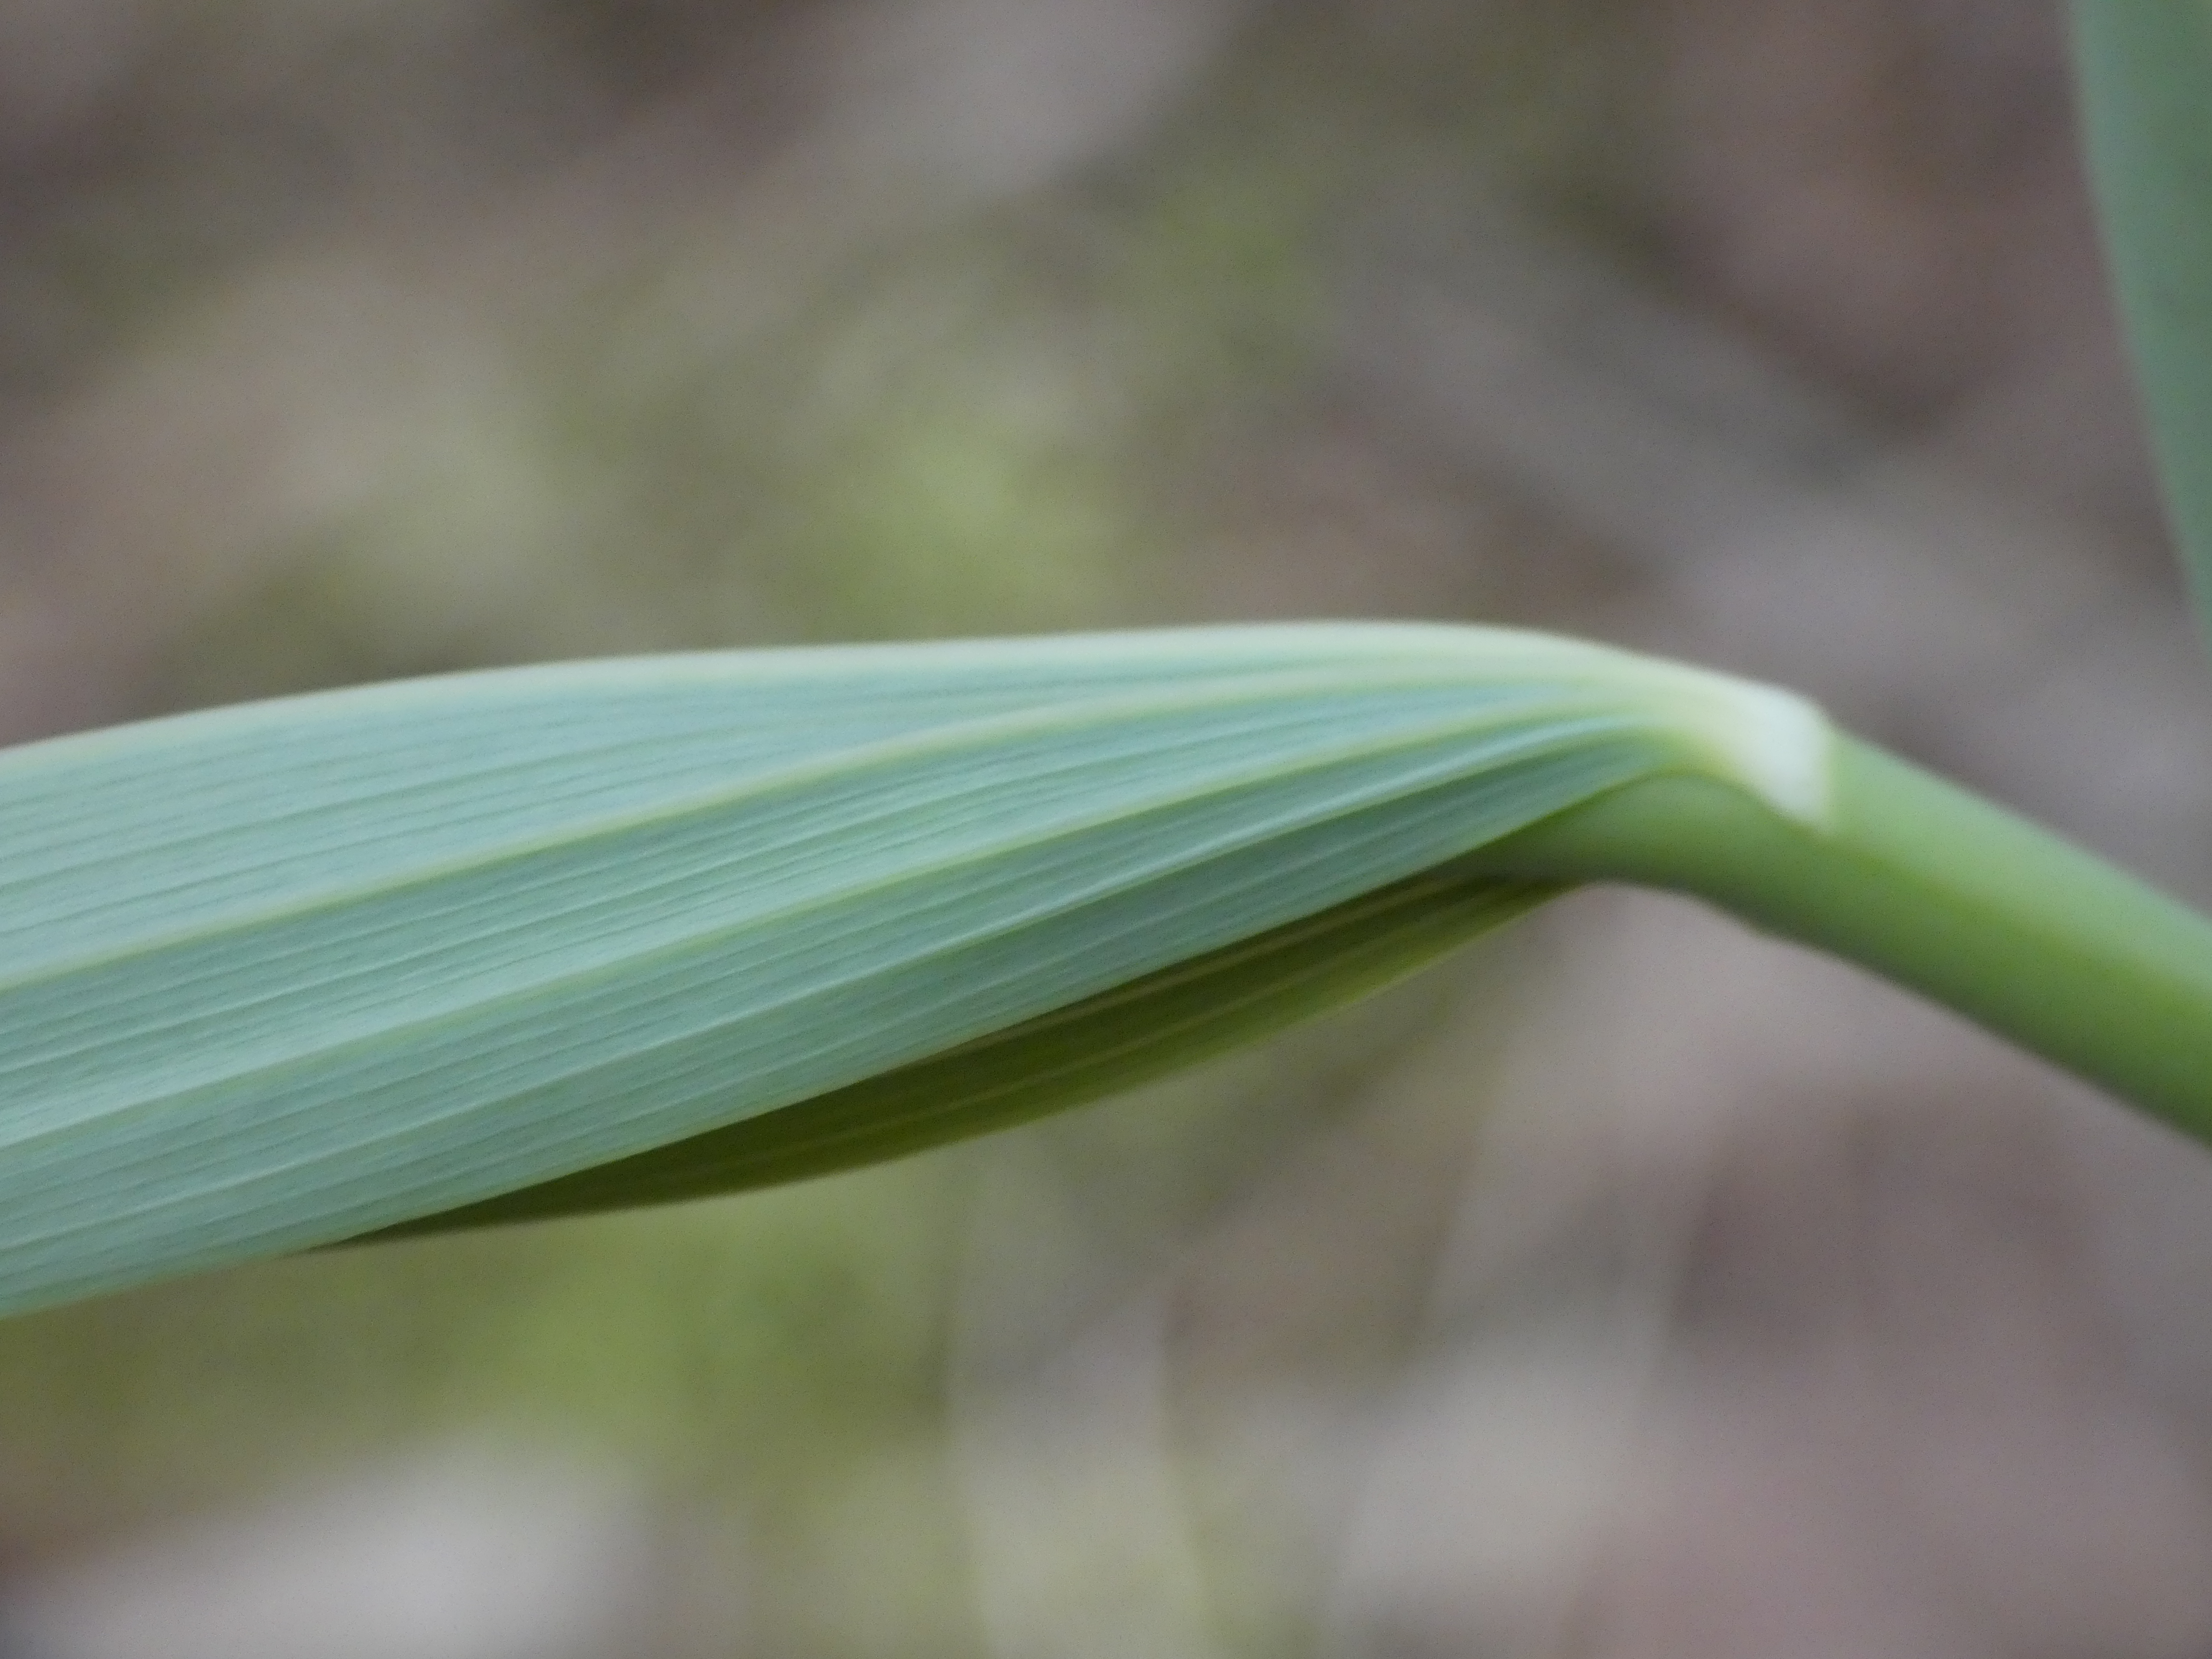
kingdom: Plantae
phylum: Tracheophyta
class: Liliopsida
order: Asparagales
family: Asparagaceae
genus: Polygonatum
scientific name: Polygonatum multiflorum
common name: Stor konval
